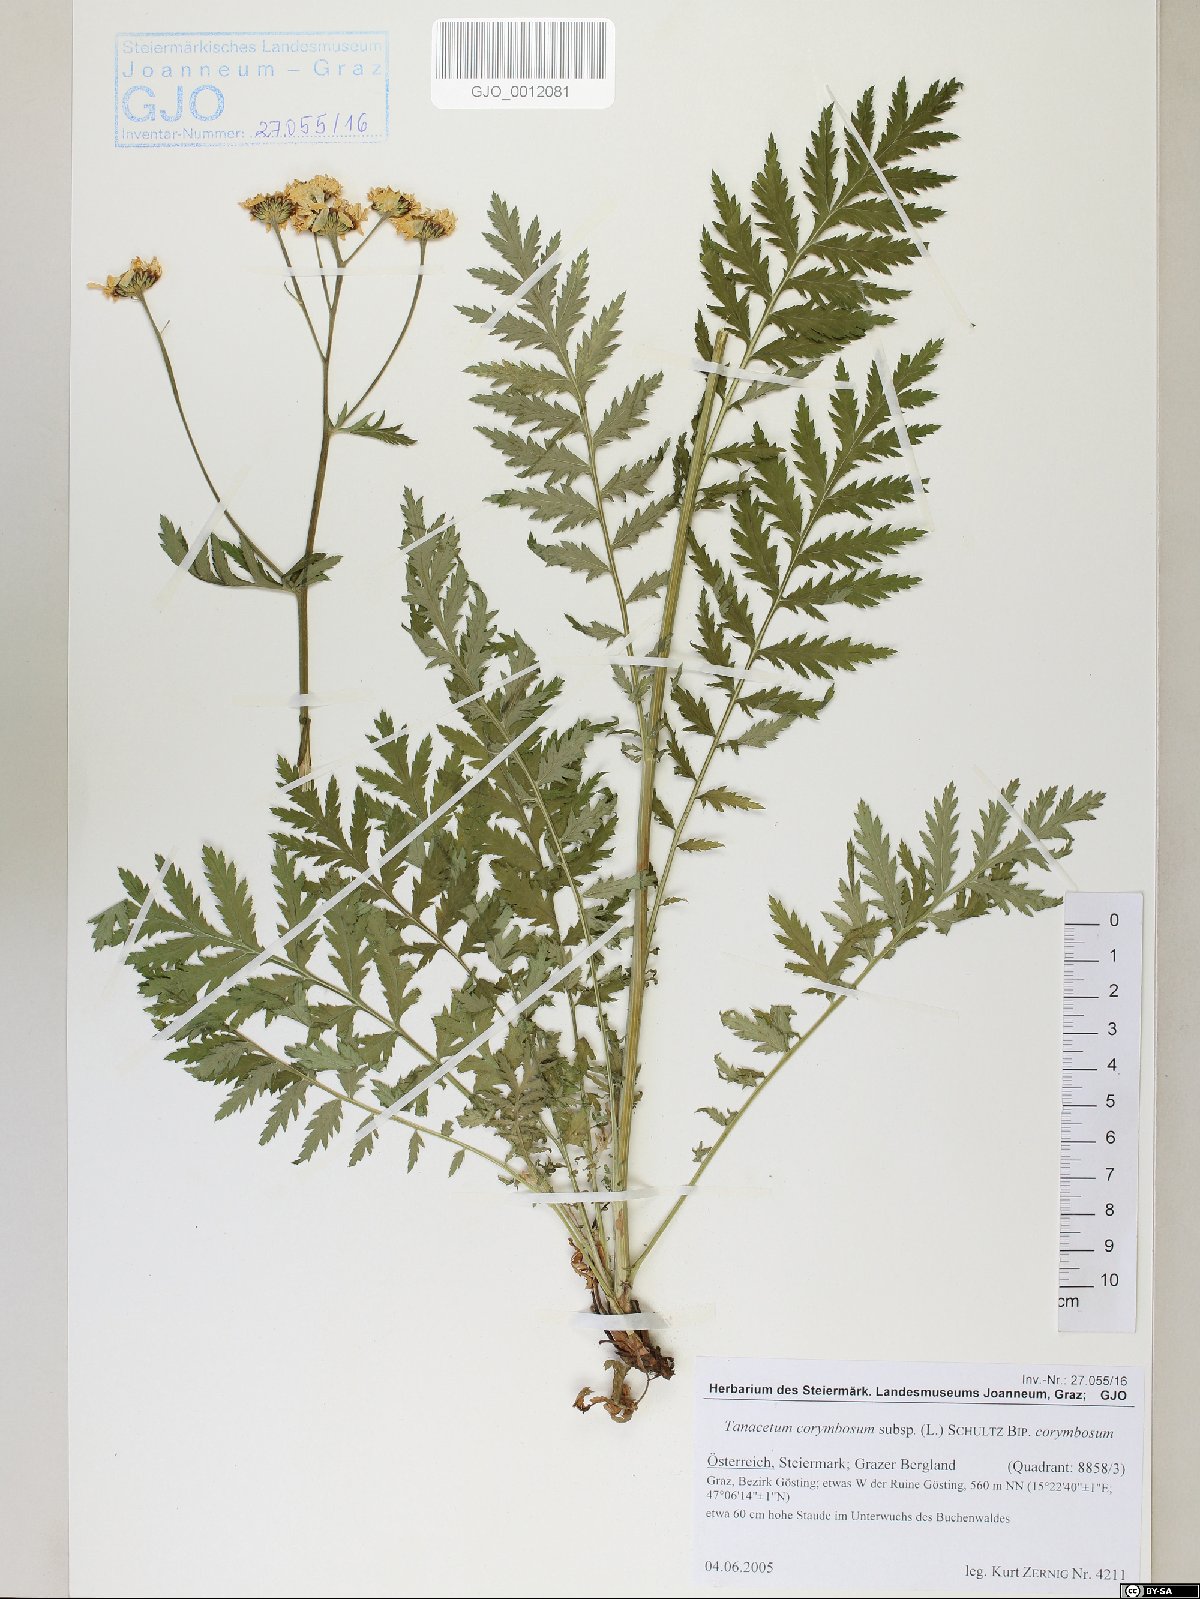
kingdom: Plantae
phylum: Tracheophyta
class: Magnoliopsida
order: Asterales
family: Asteraceae
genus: Tanacetum
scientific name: Tanacetum corymbosum
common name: Scentless feverfew
